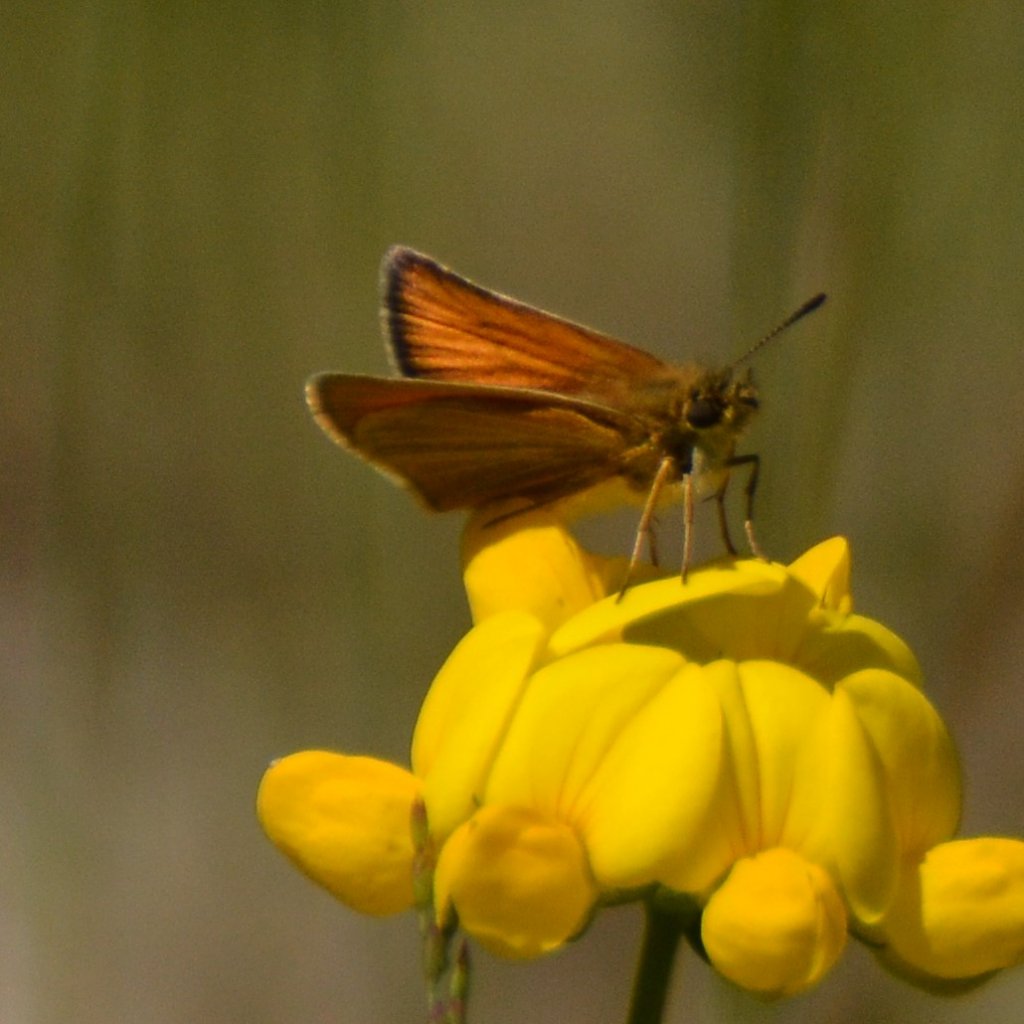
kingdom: Animalia
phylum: Arthropoda
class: Insecta
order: Lepidoptera
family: Hesperiidae
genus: Thymelicus
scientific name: Thymelicus lineola
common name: European Skipper
